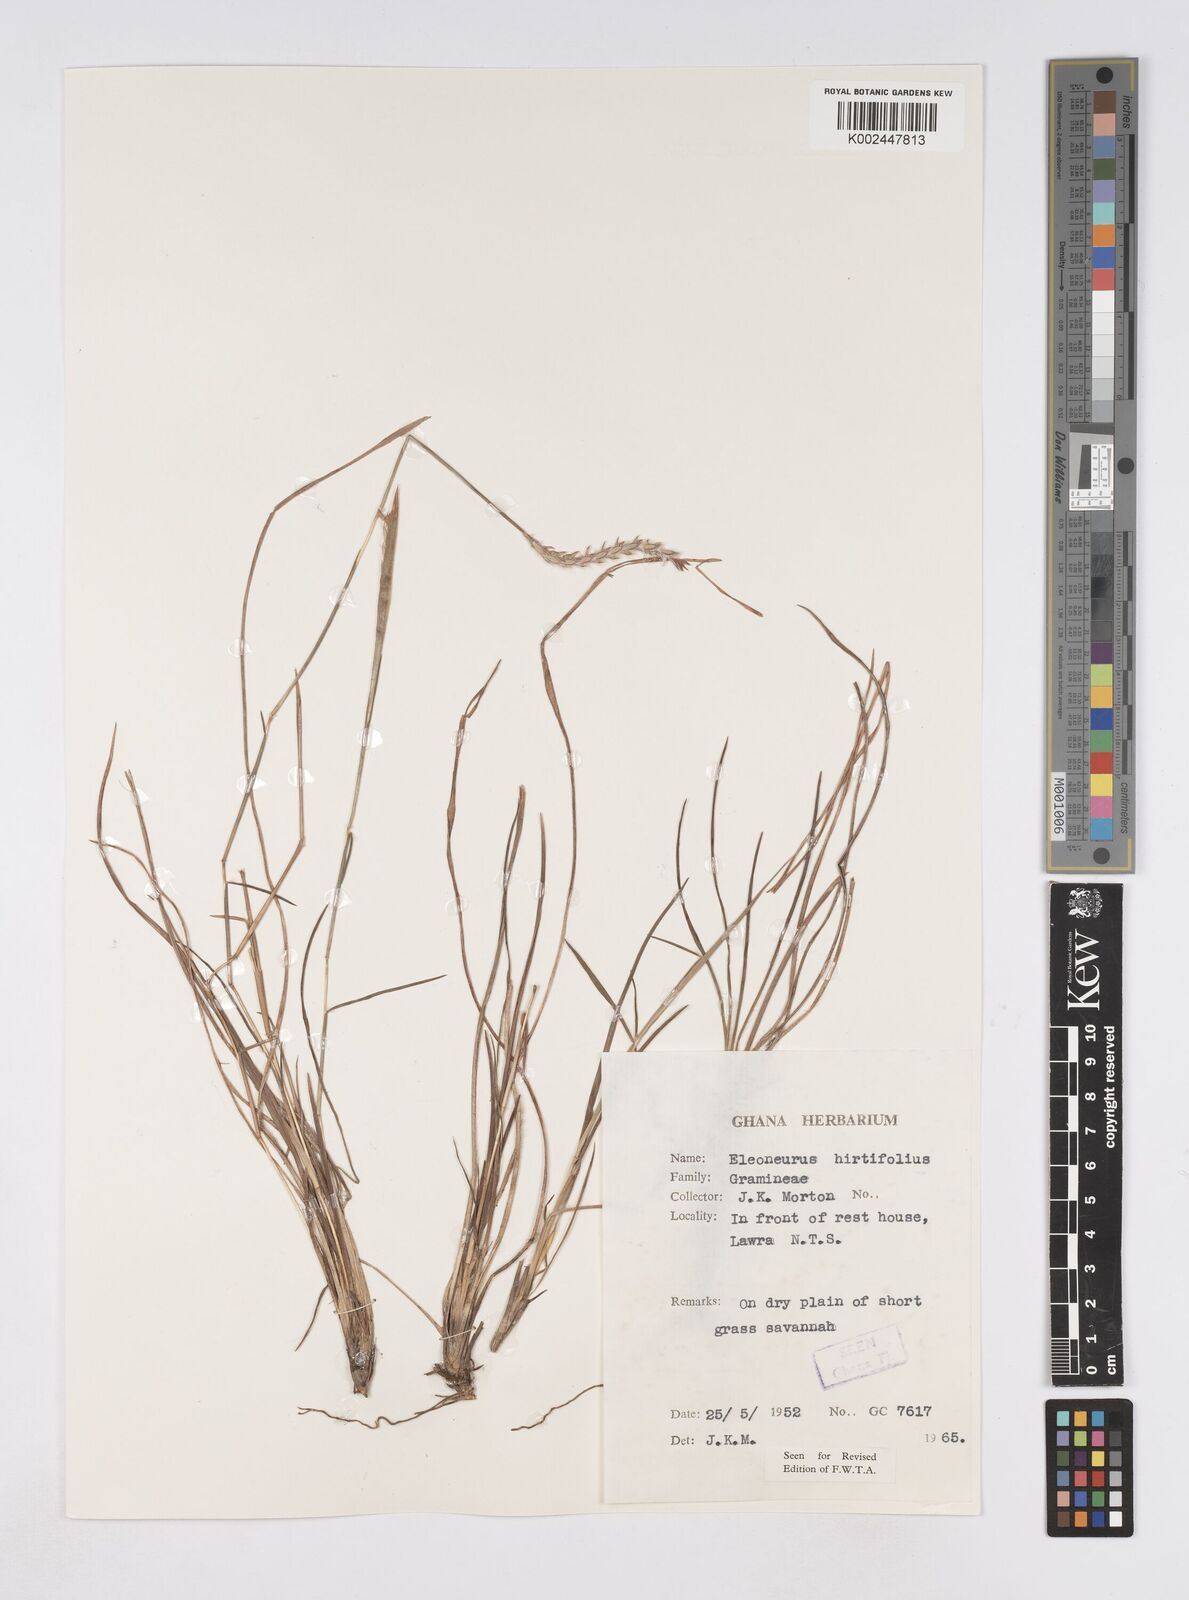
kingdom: Plantae
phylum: Tracheophyta
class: Liliopsida
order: Poales
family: Poaceae
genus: Elionurus
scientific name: Elionurus hirtifolius
